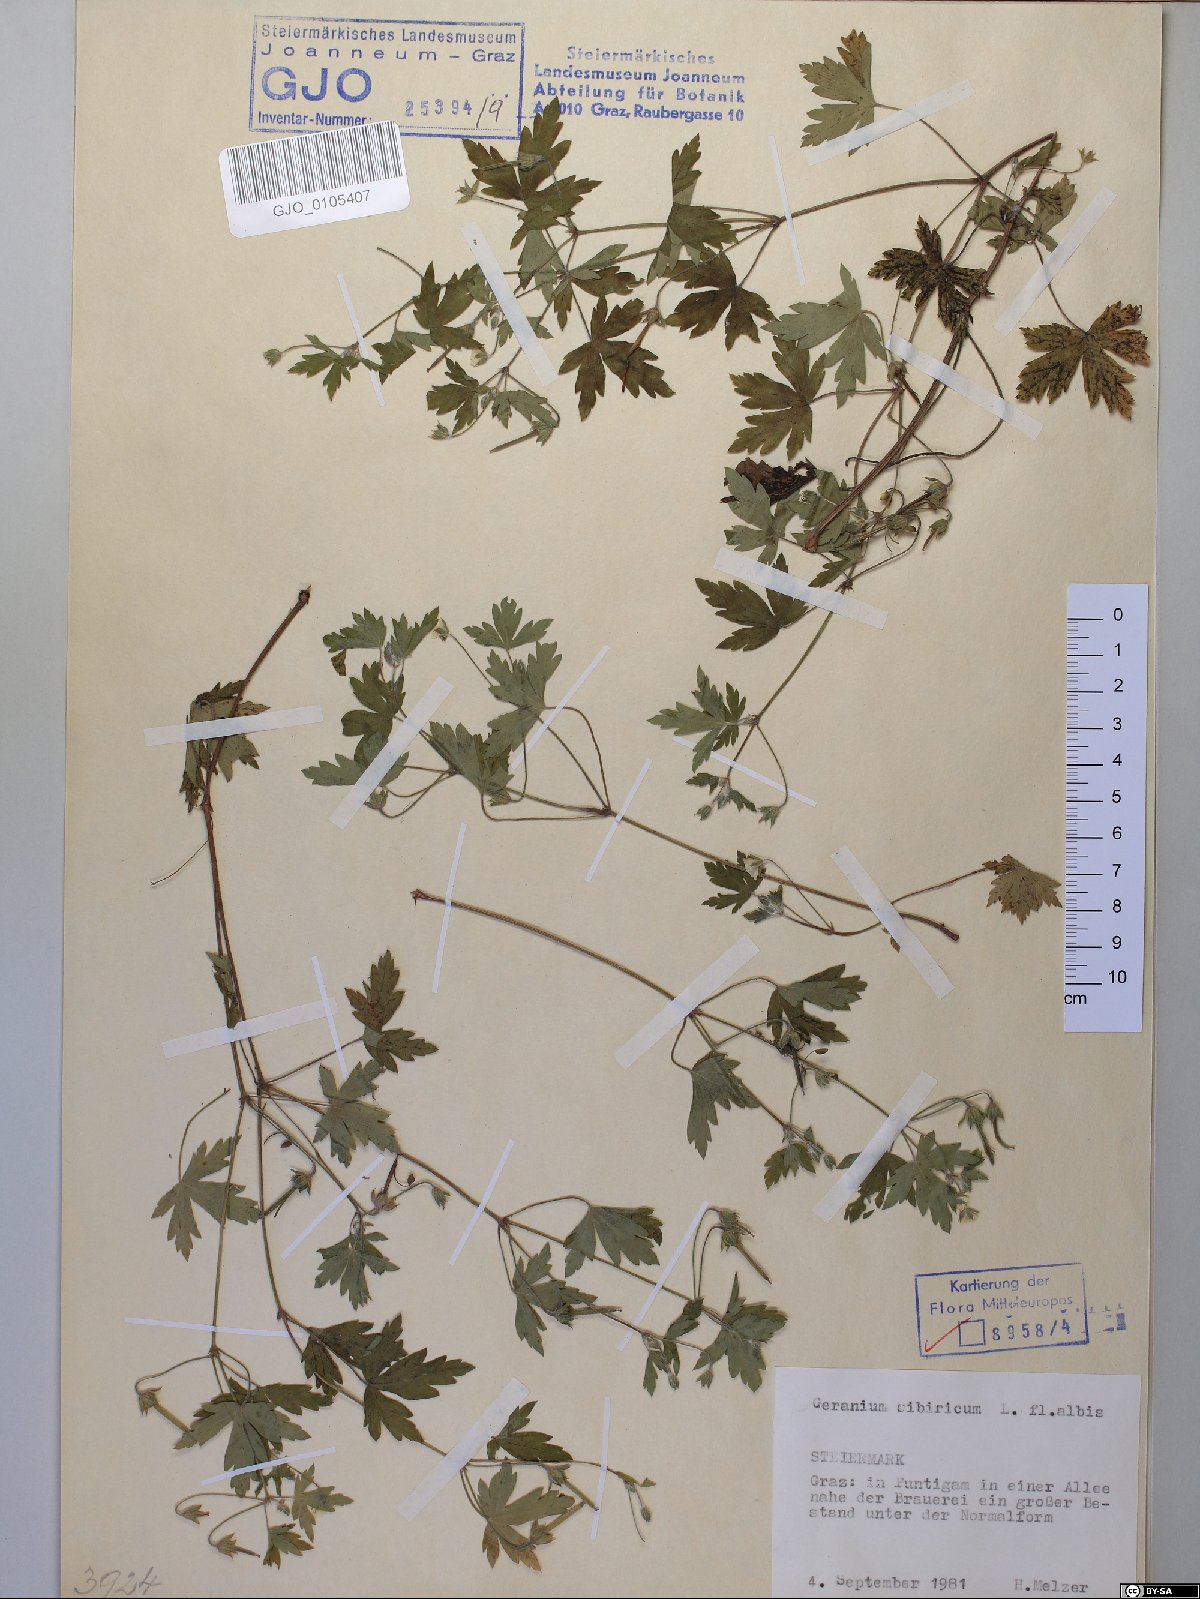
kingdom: Plantae
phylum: Tracheophyta
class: Magnoliopsida
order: Geraniales
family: Geraniaceae
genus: Geranium
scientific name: Geranium sibiricum
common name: Siberian crane's-bill
